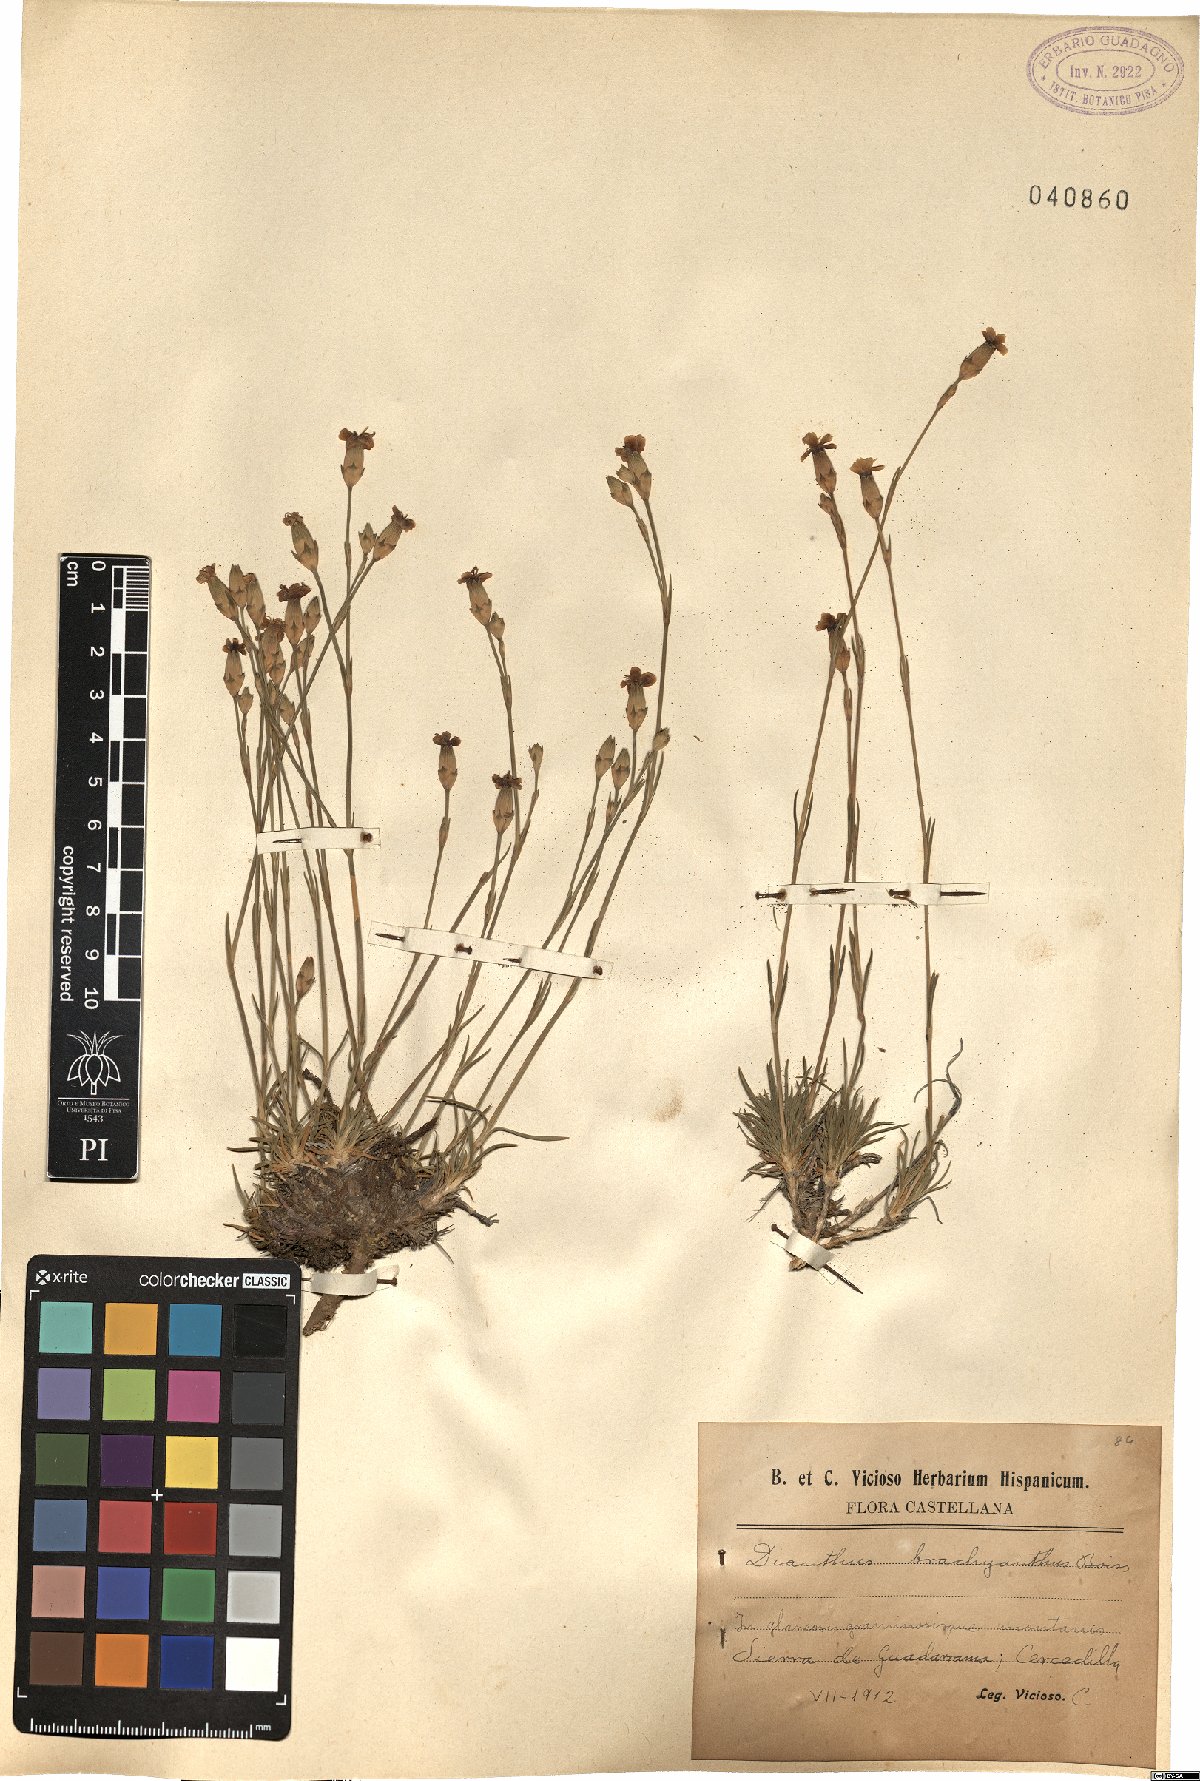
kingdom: Plantae
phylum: Tracheophyta
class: Magnoliopsida
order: Caryophyllales
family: Caryophyllaceae
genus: Dianthus
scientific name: Dianthus pungens
